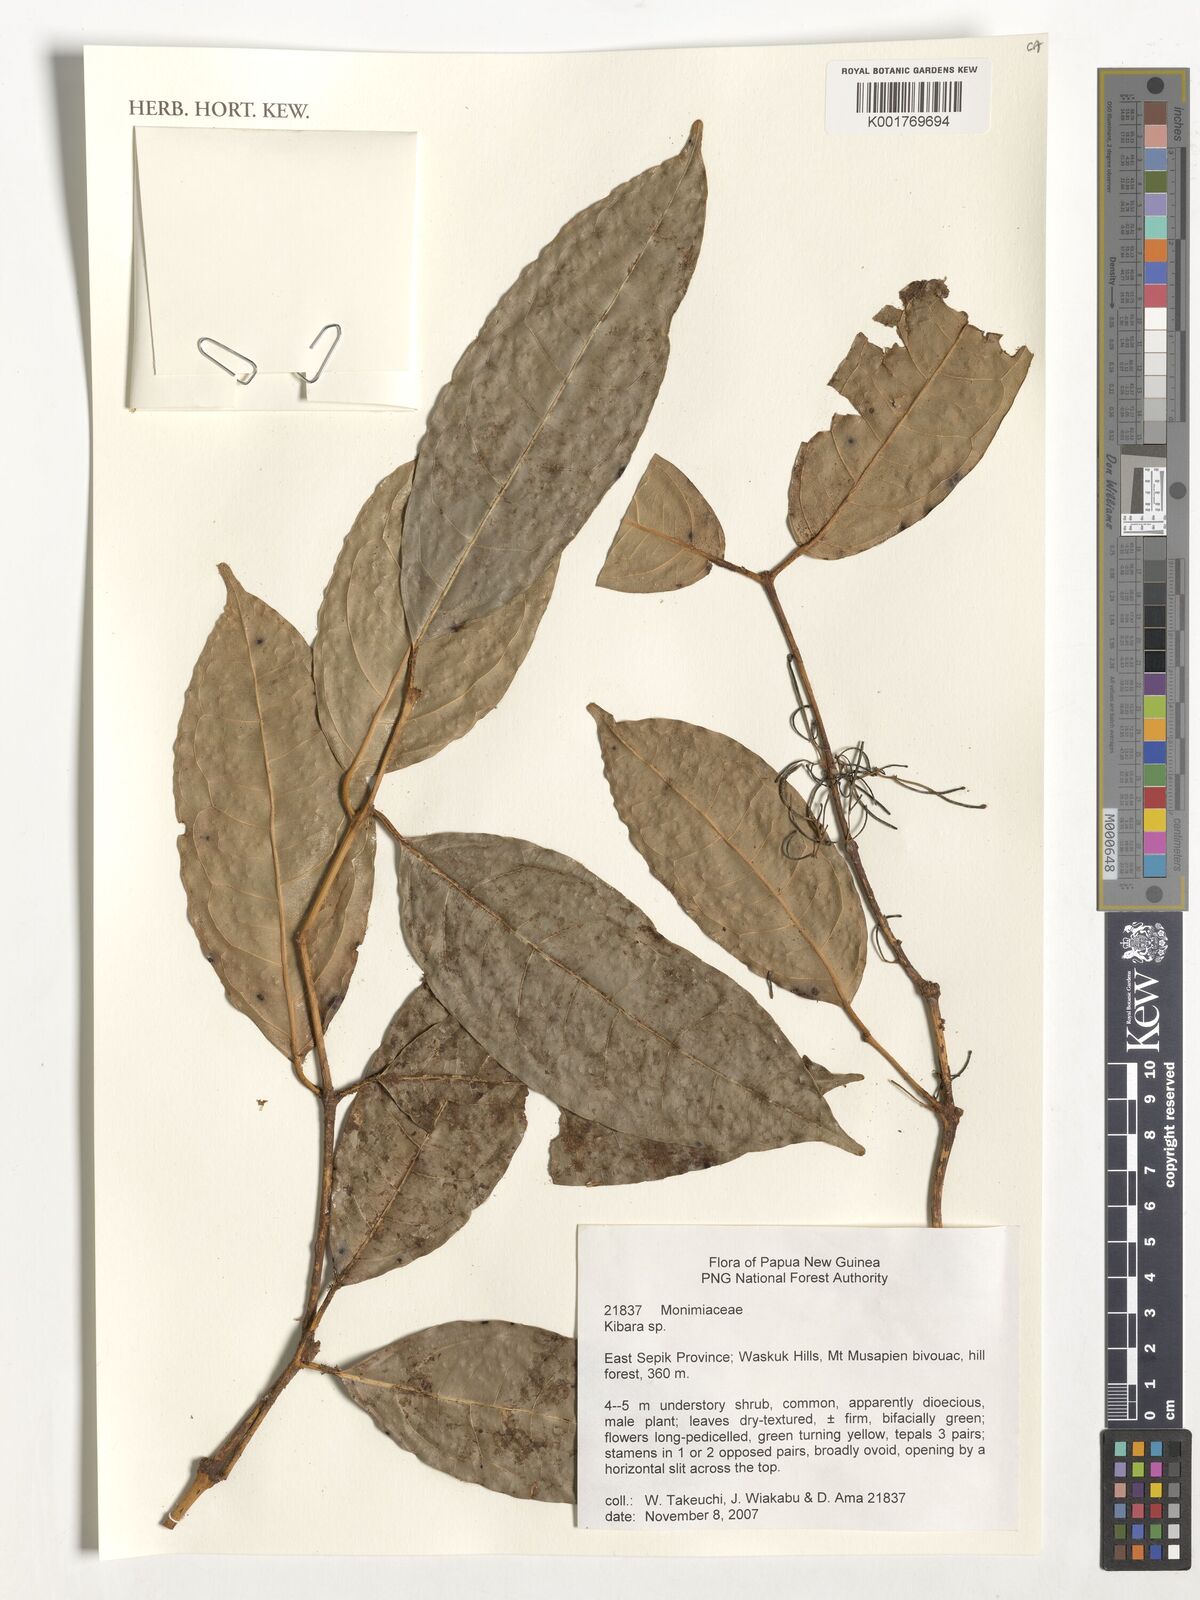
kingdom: Plantae
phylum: Tracheophyta
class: Magnoliopsida
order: Laurales
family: Monimiaceae
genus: Kibara
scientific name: Kibara
